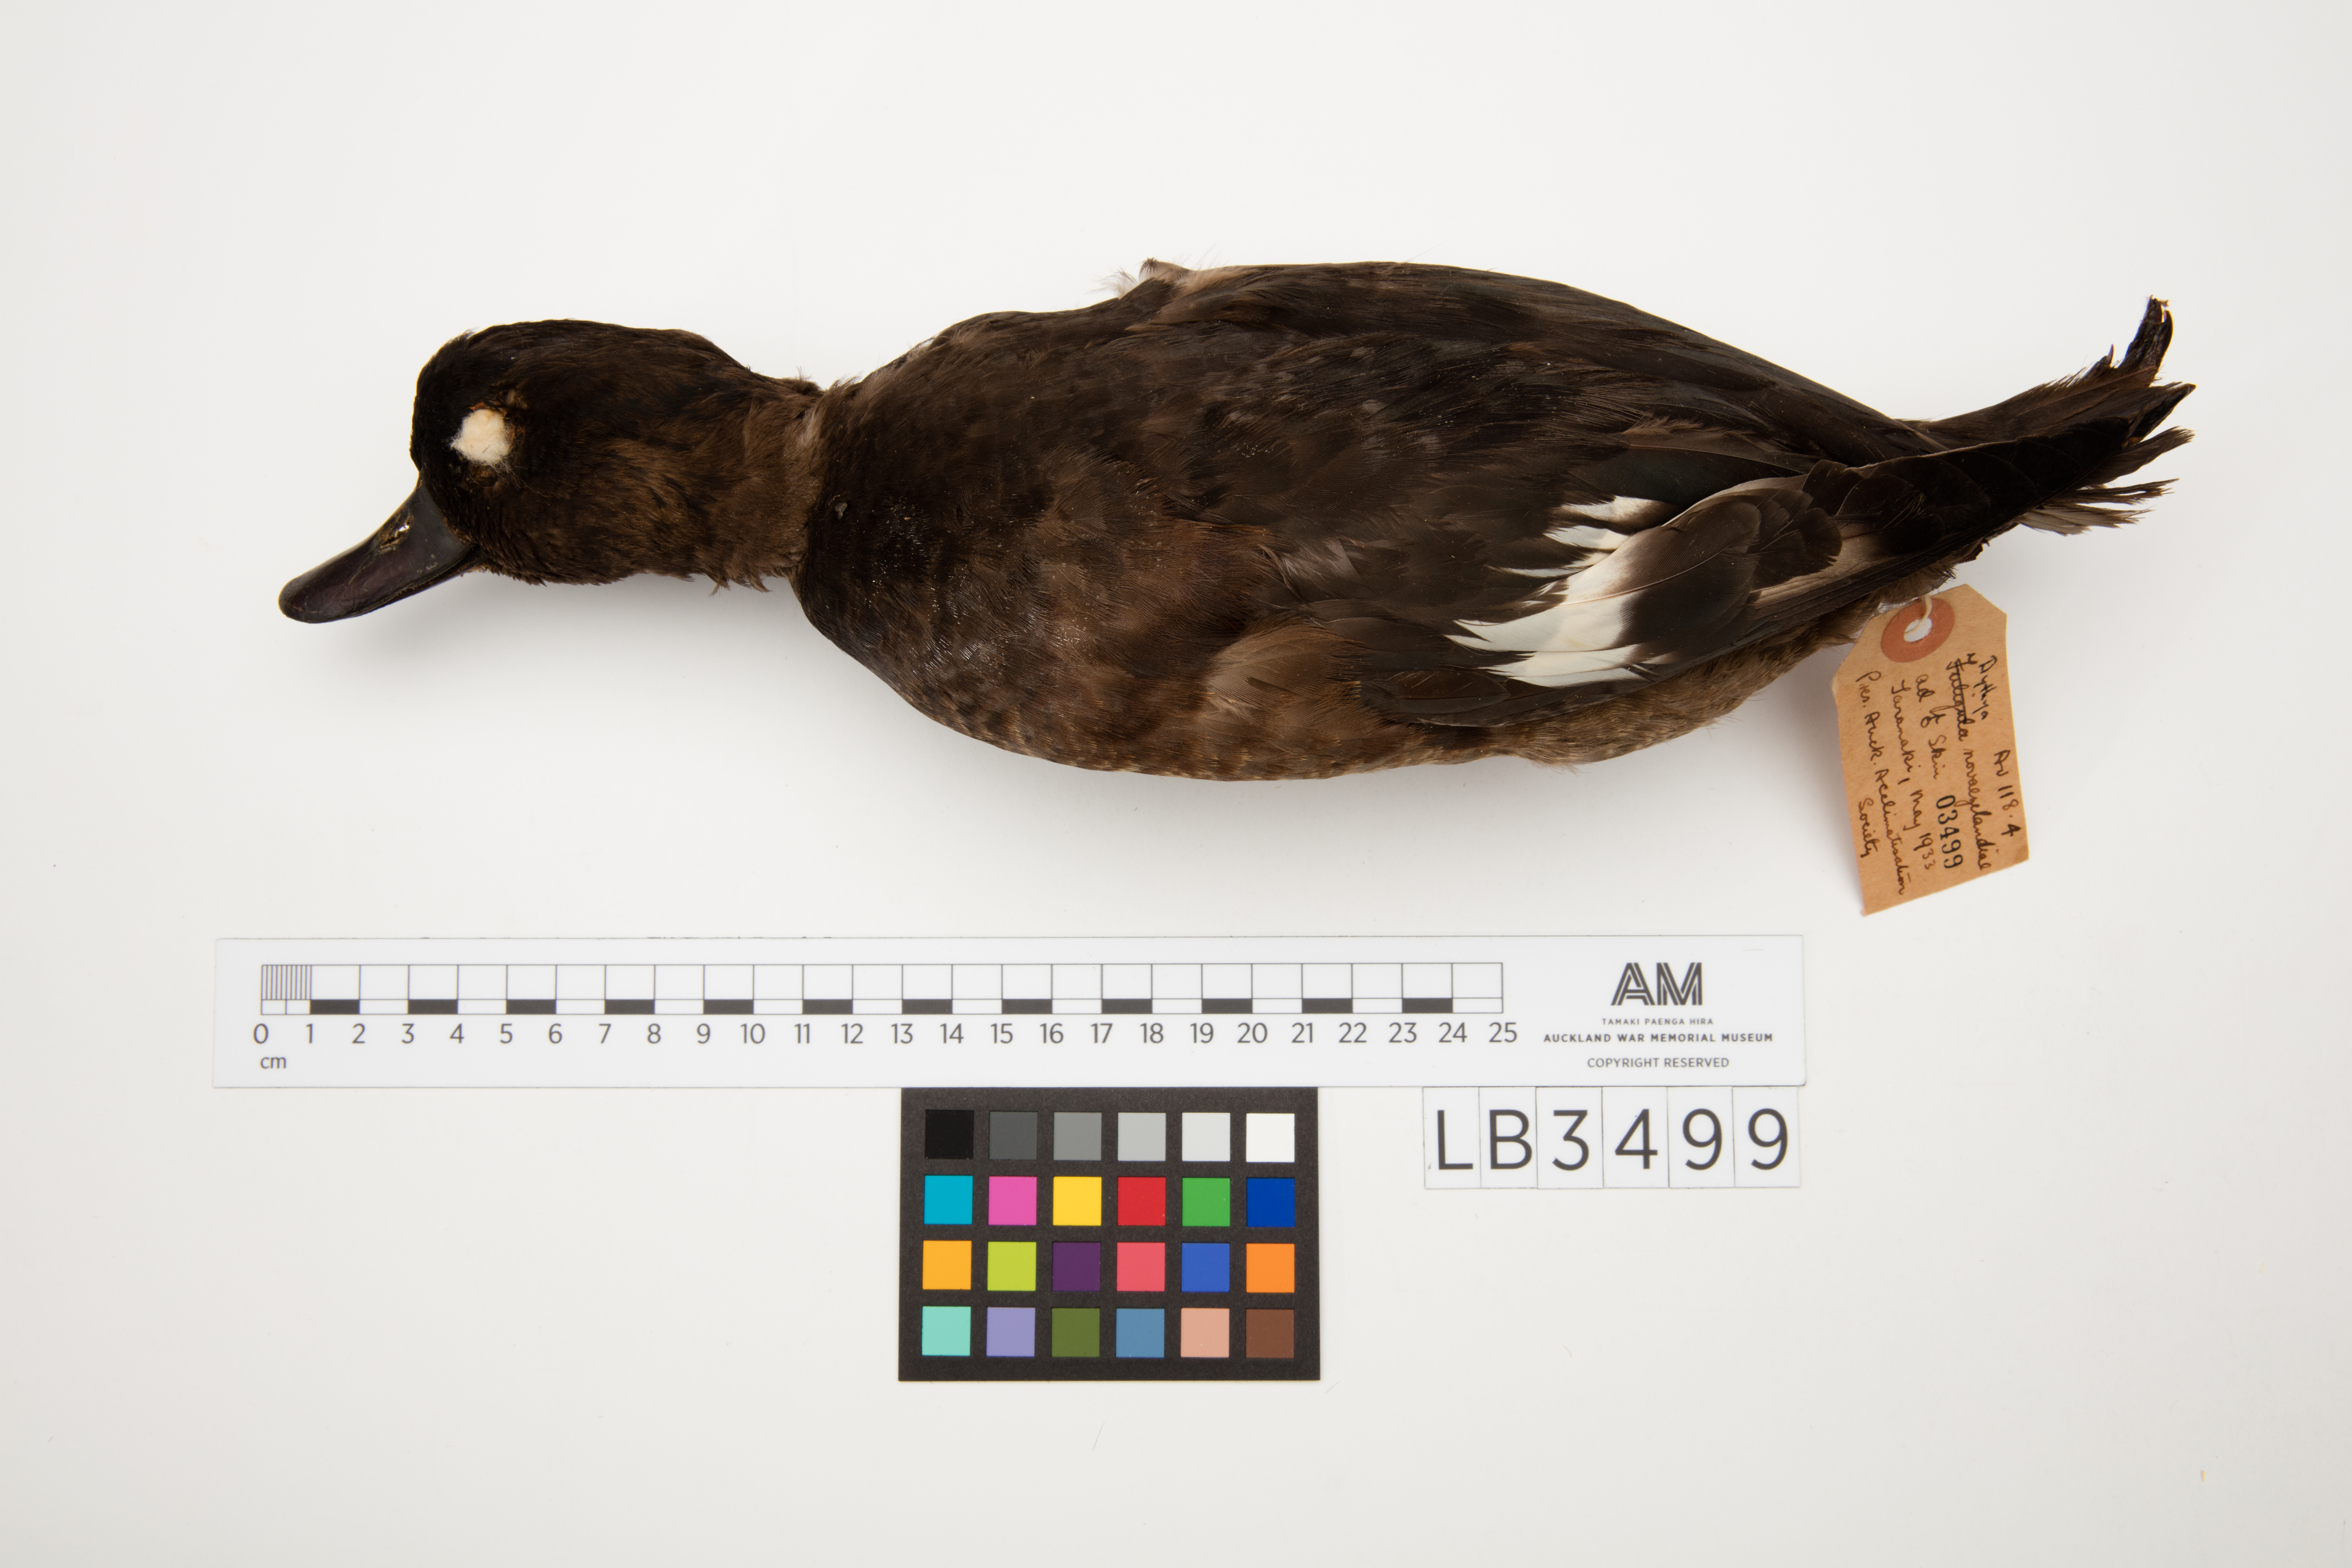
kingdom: Animalia
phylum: Chordata
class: Aves
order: Anseriformes
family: Anatidae
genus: Aythya
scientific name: Aythya novaeseelandiae
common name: New zealand scaup
